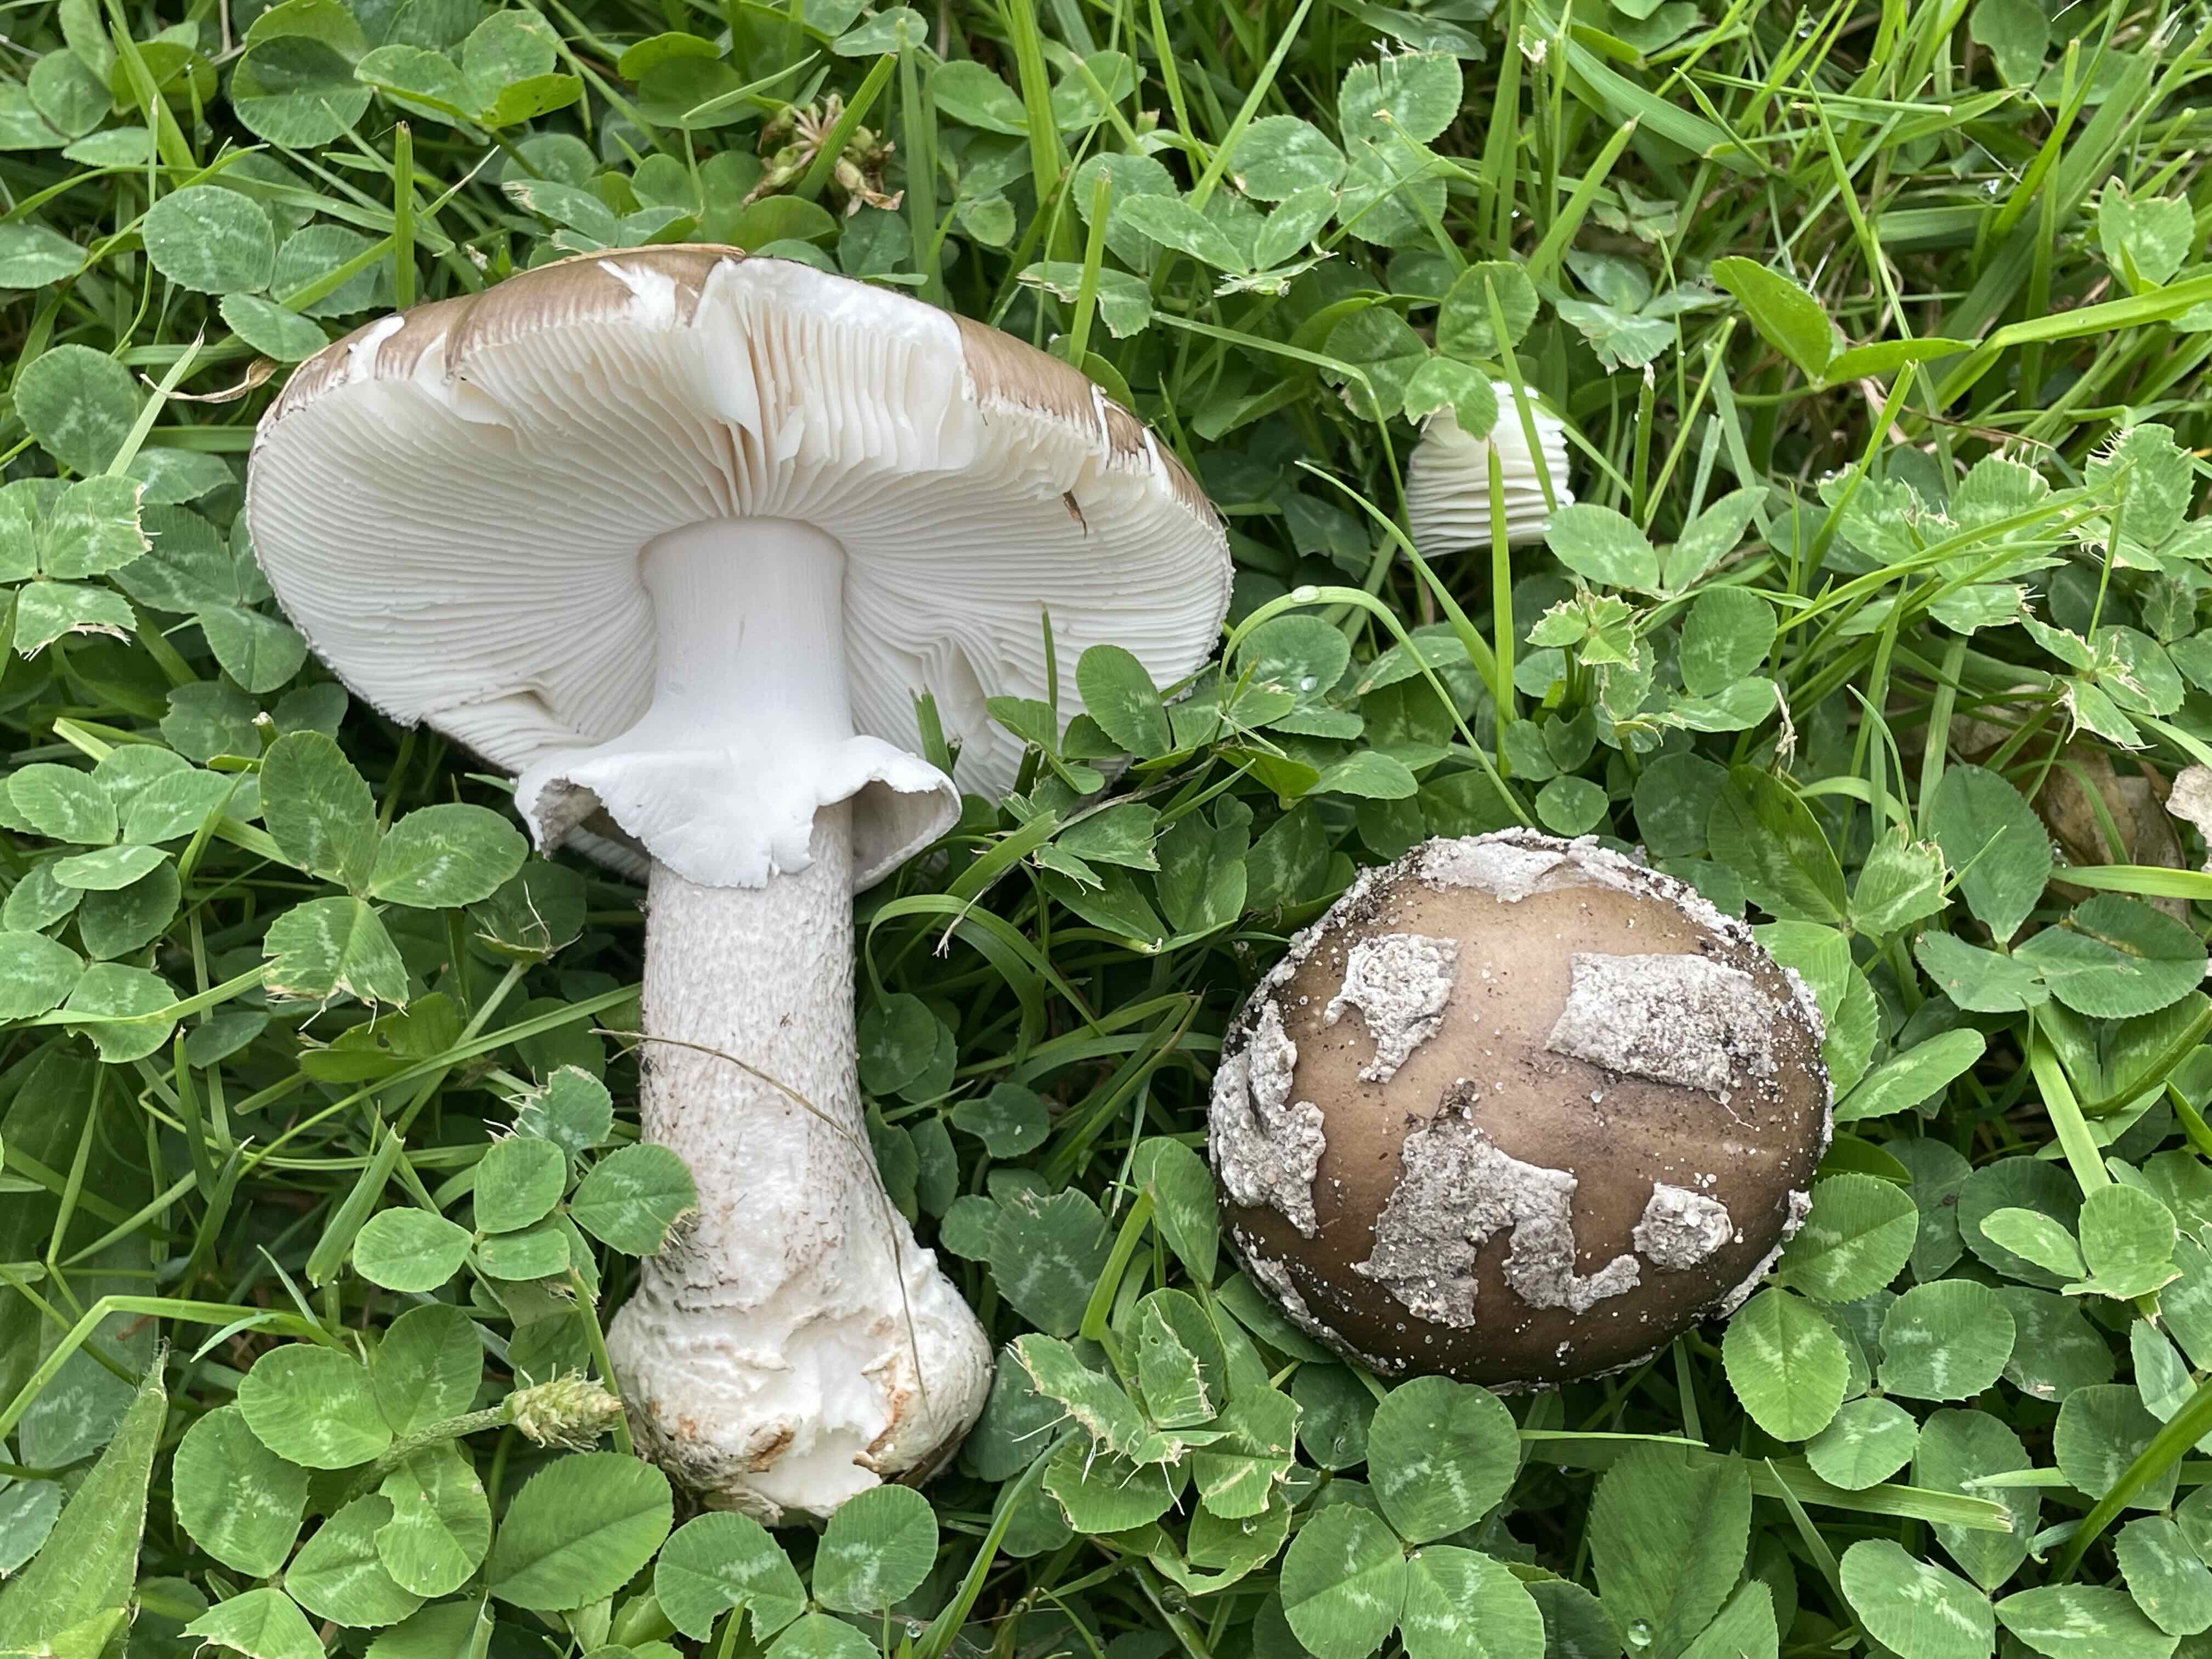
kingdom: Fungi
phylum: Basidiomycota
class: Agaricomycetes
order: Agaricales
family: Amanitaceae
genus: Amanita
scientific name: Amanita
